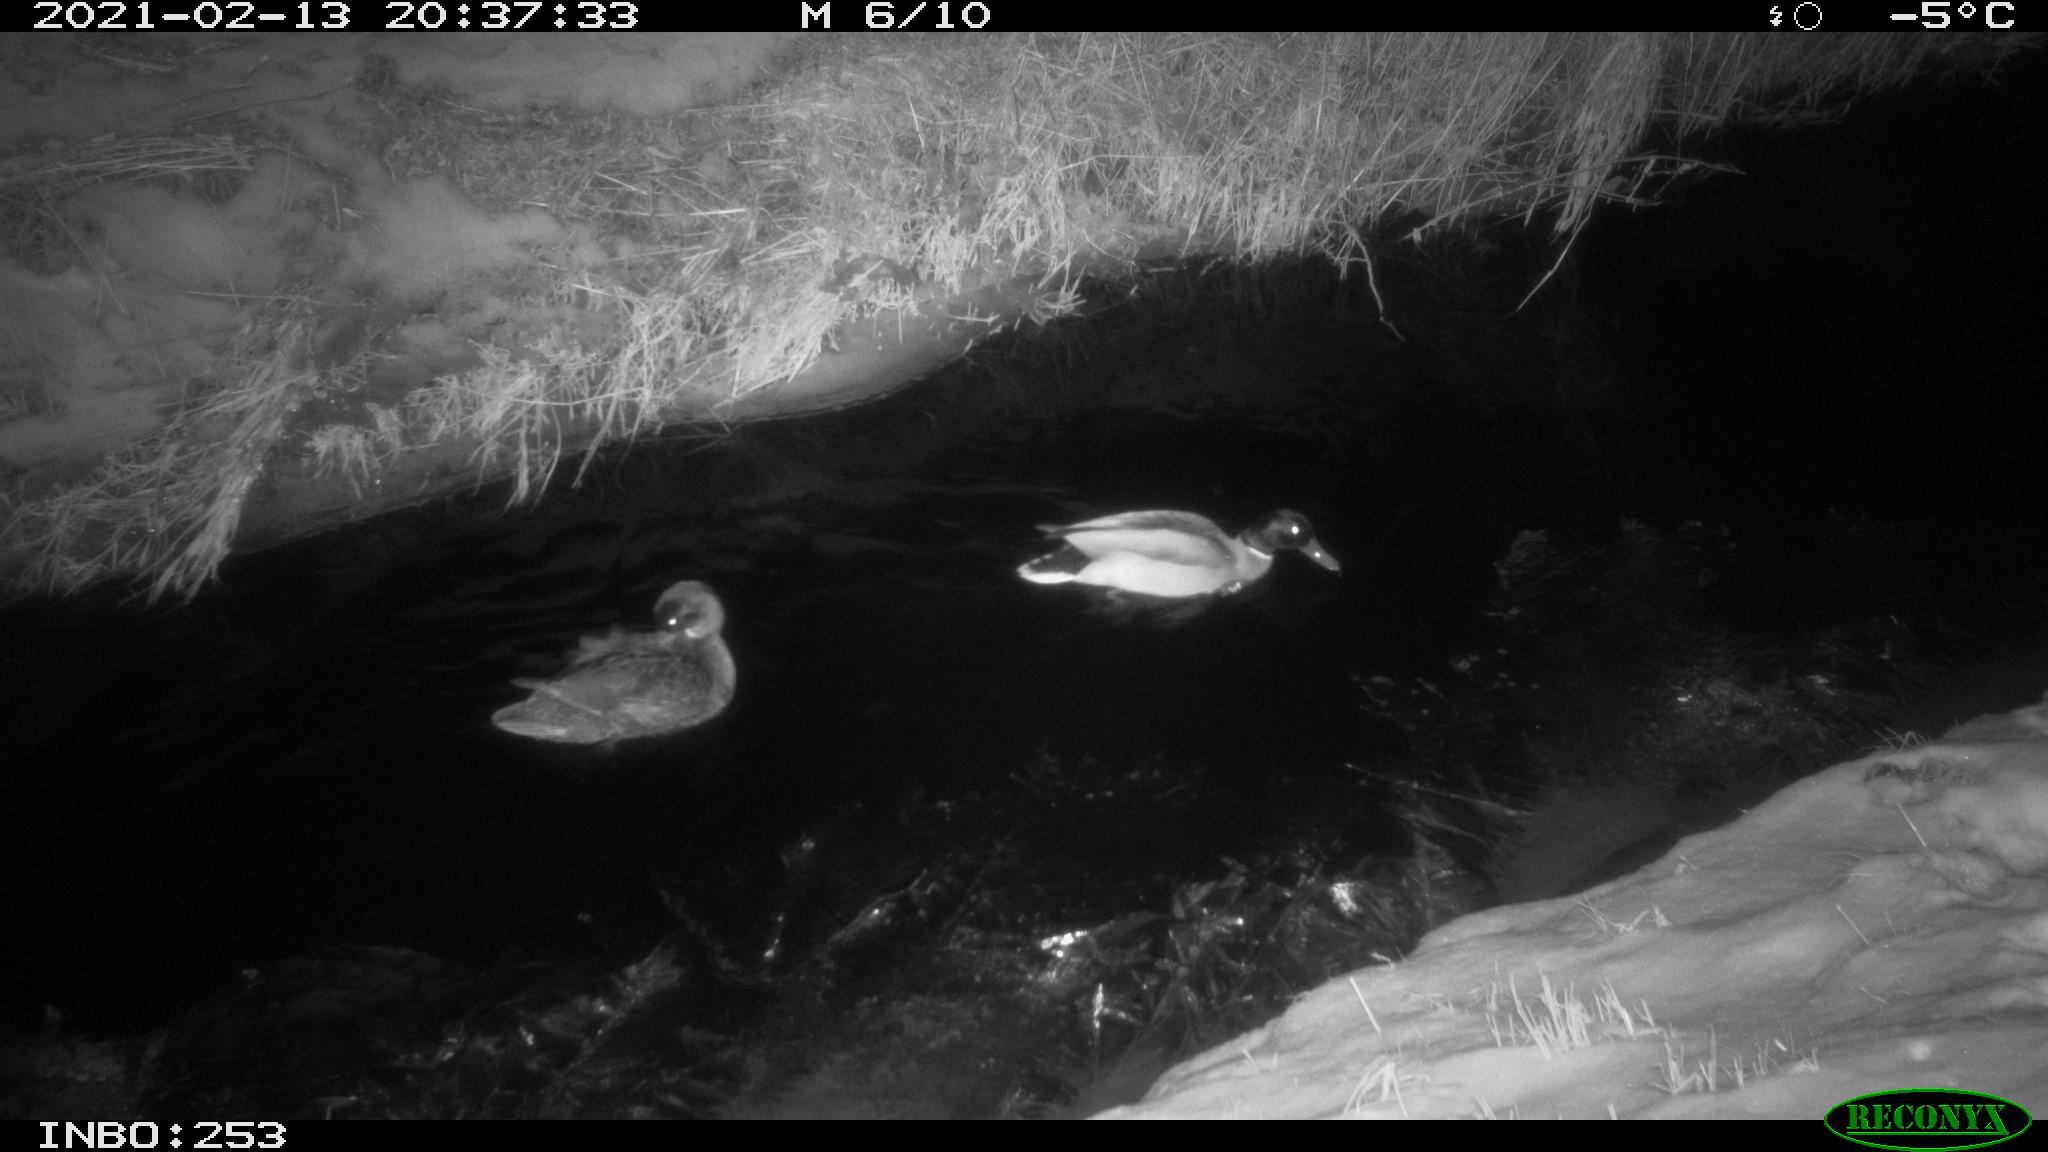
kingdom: Animalia
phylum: Chordata
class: Aves
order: Anseriformes
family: Anatidae
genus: Anas
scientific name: Anas platyrhynchos
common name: Mallard
